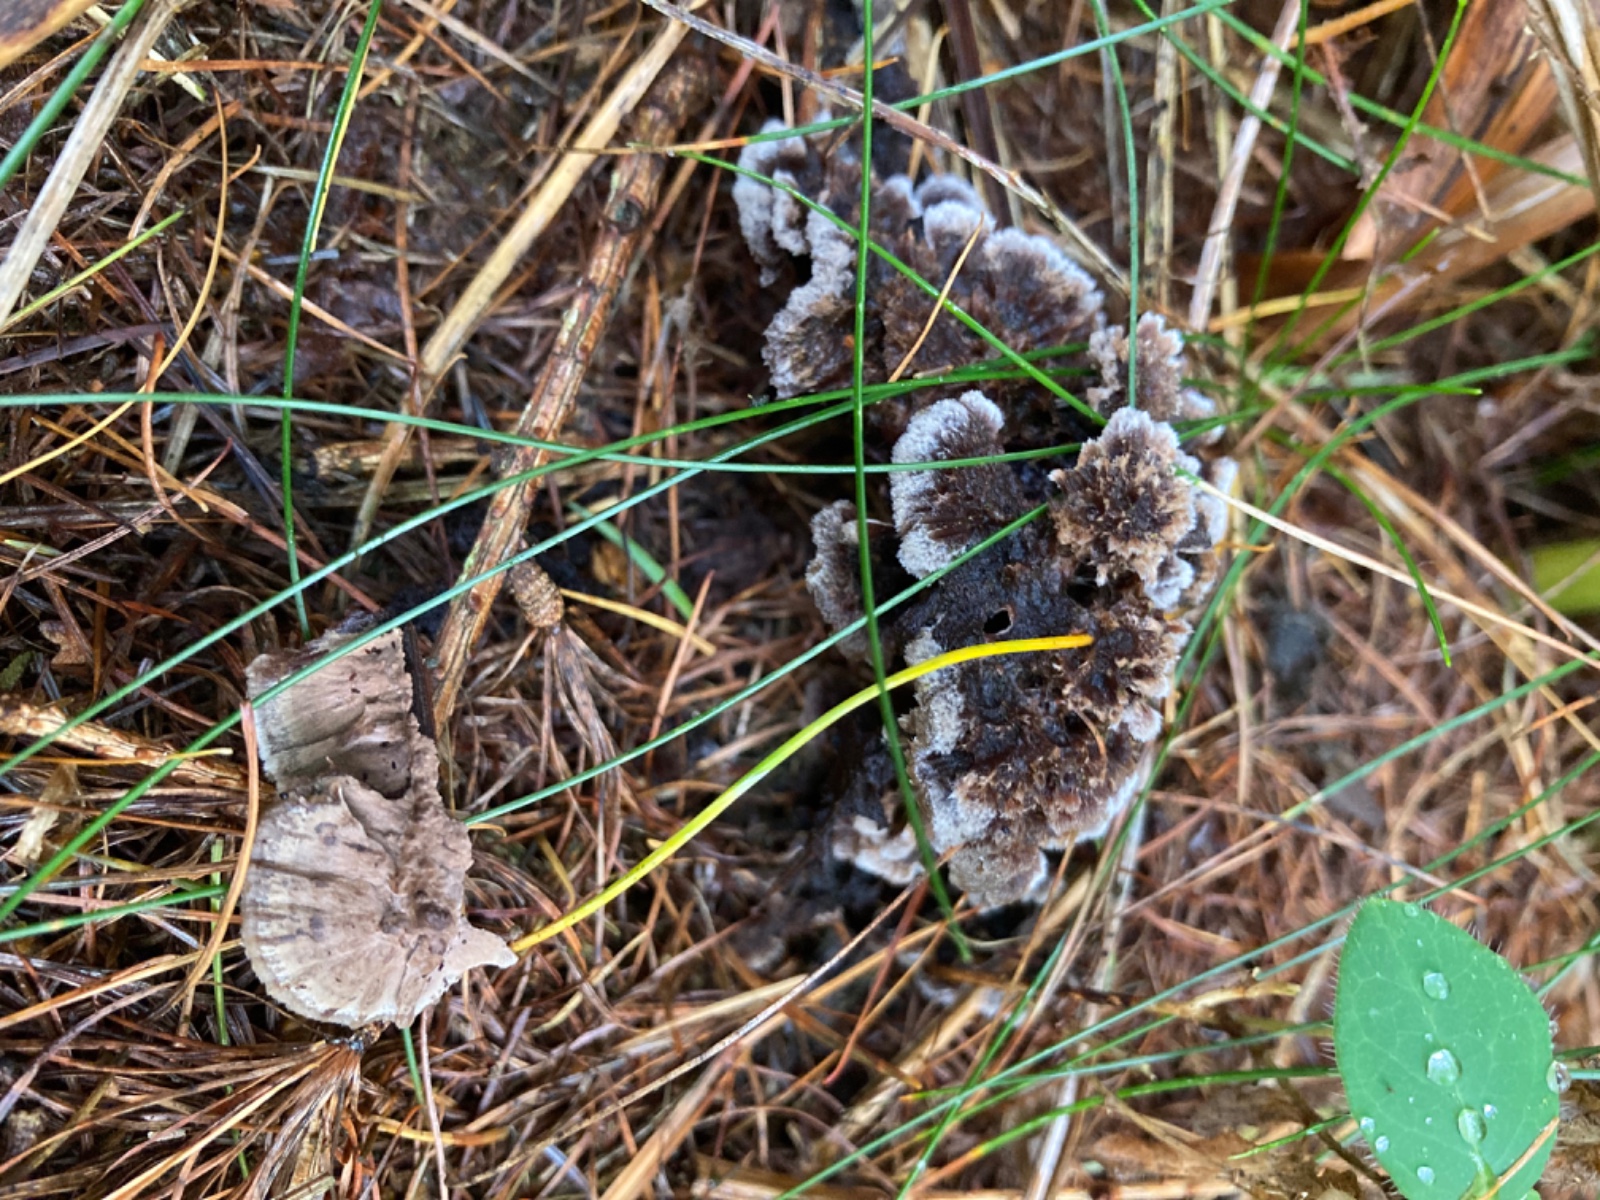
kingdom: Fungi
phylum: Basidiomycota
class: Agaricomycetes
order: Thelephorales
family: Thelephoraceae
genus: Thelephora
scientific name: Thelephora terrestris
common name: fliget frynsesvamp
